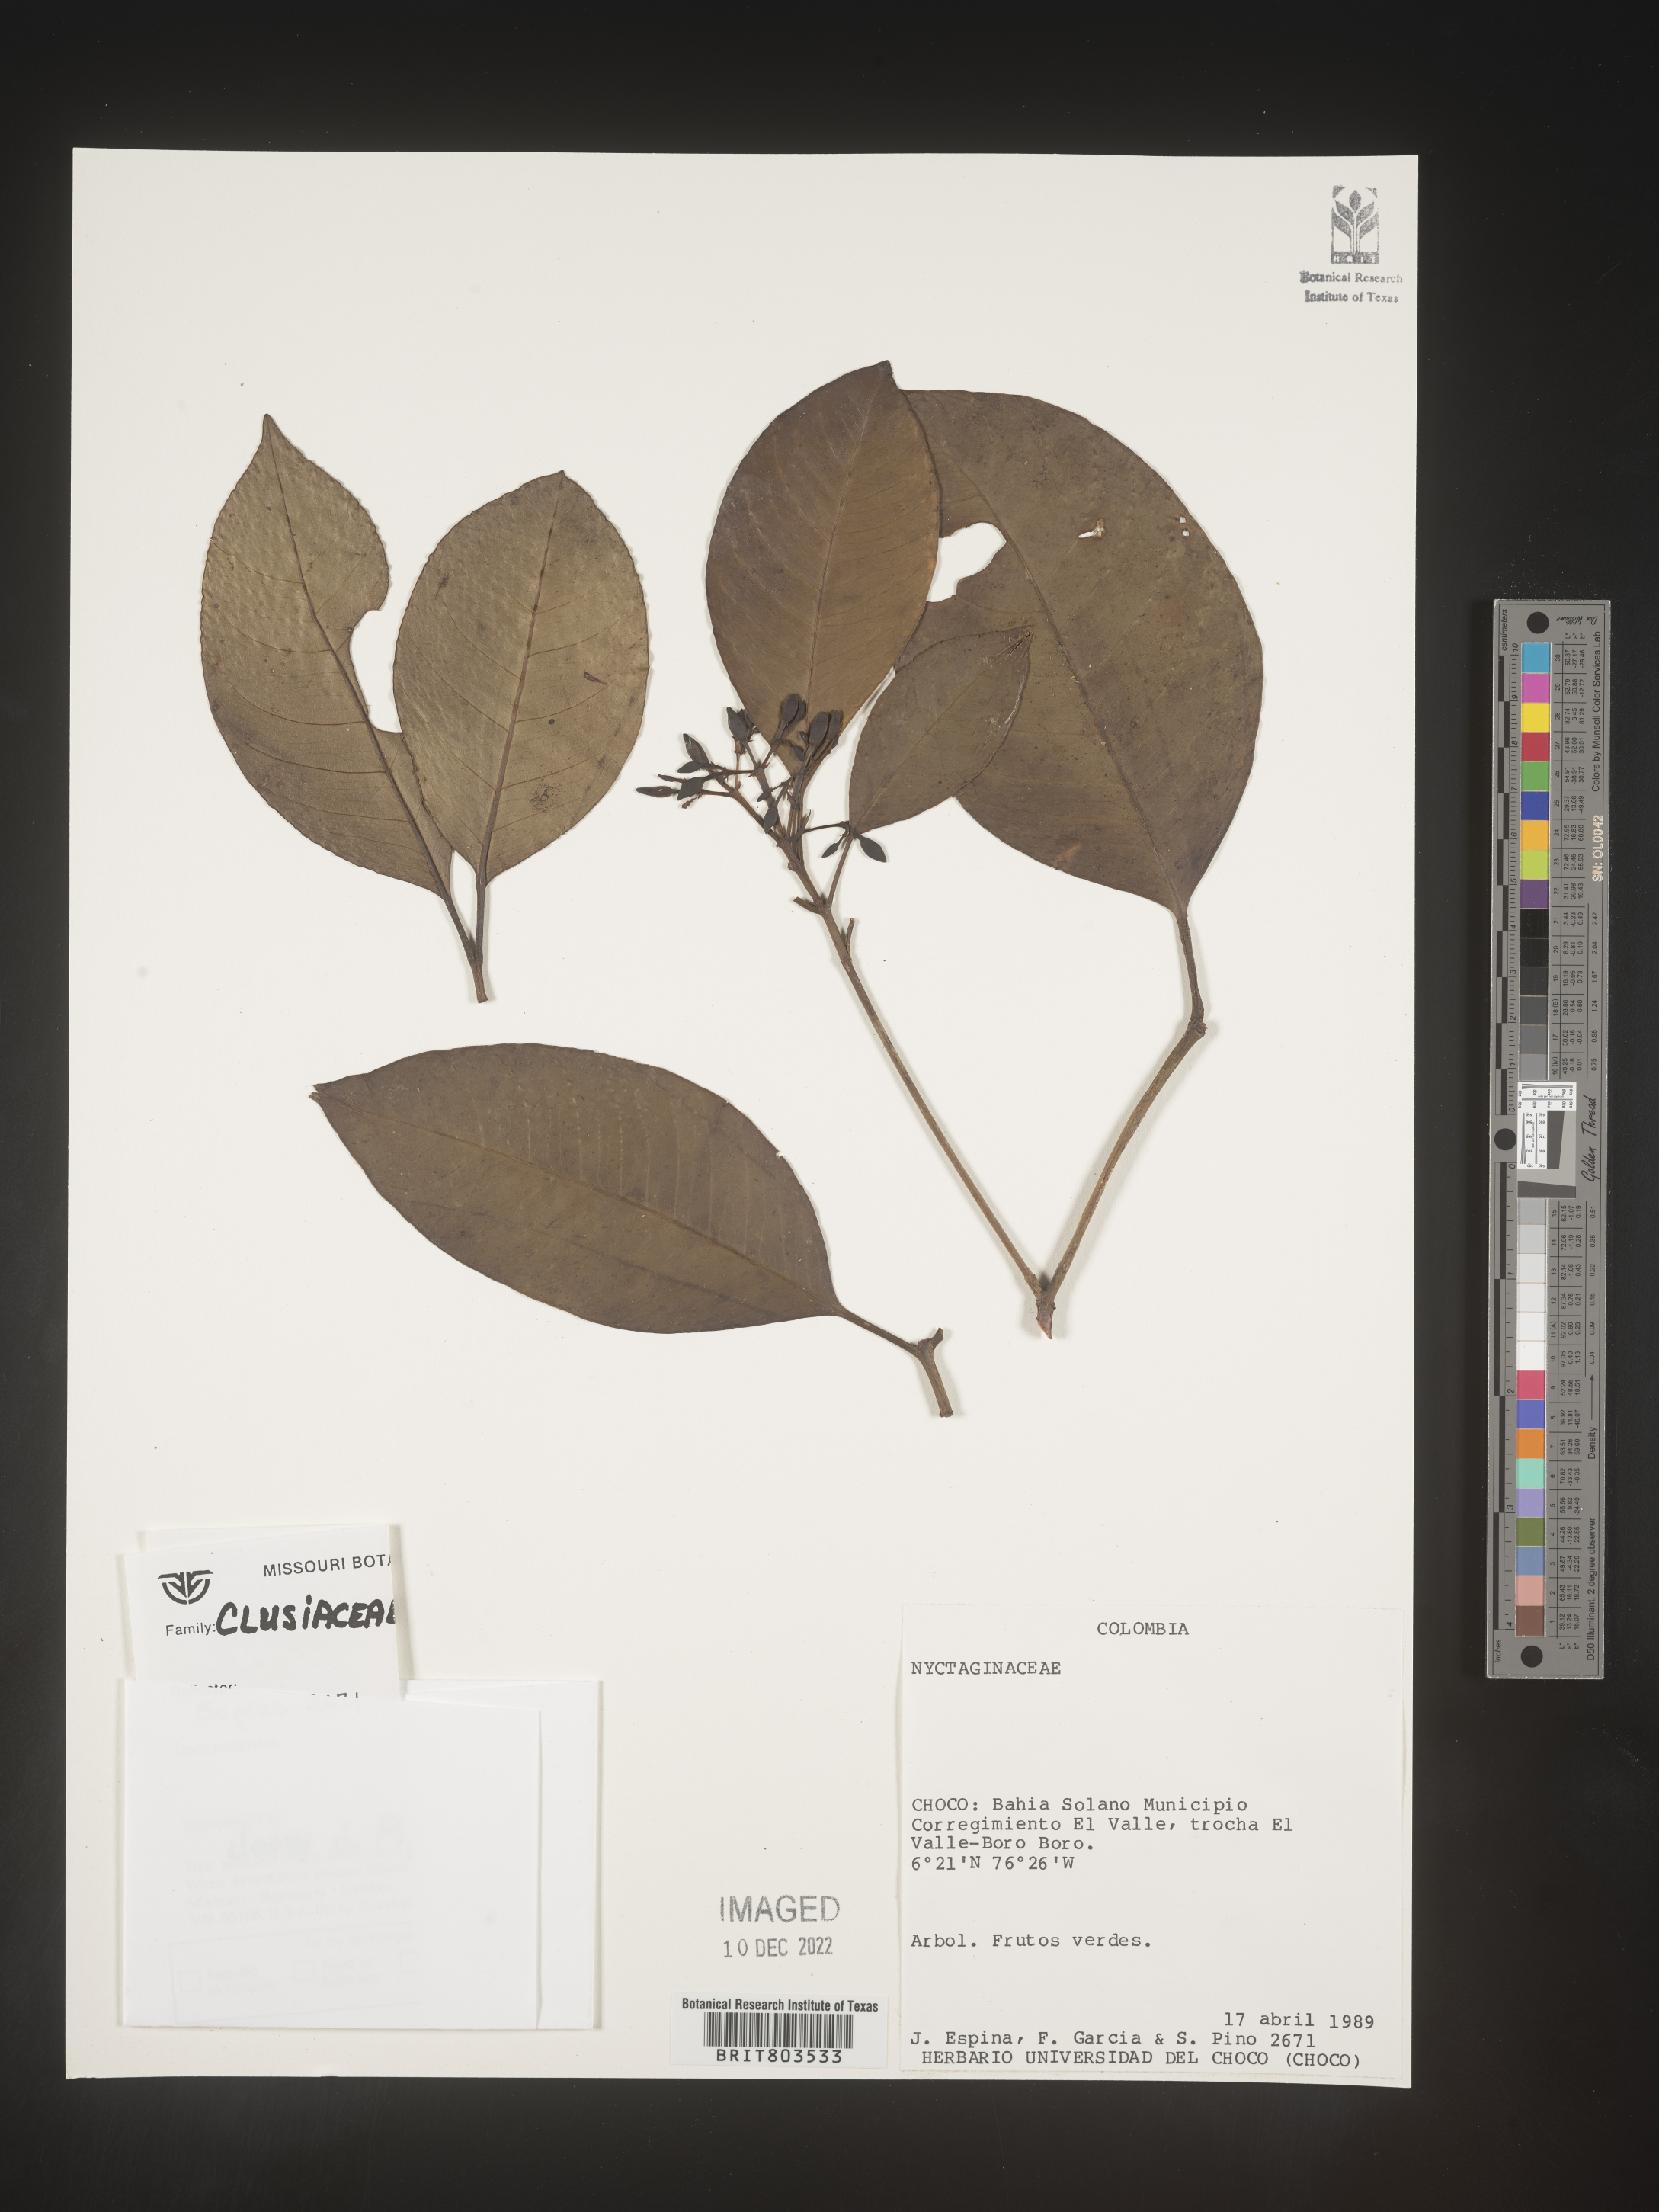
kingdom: Plantae
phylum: Tracheophyta
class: Magnoliopsida
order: Malpighiales
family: Clusiaceae
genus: Tovomita
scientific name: Tovomita
